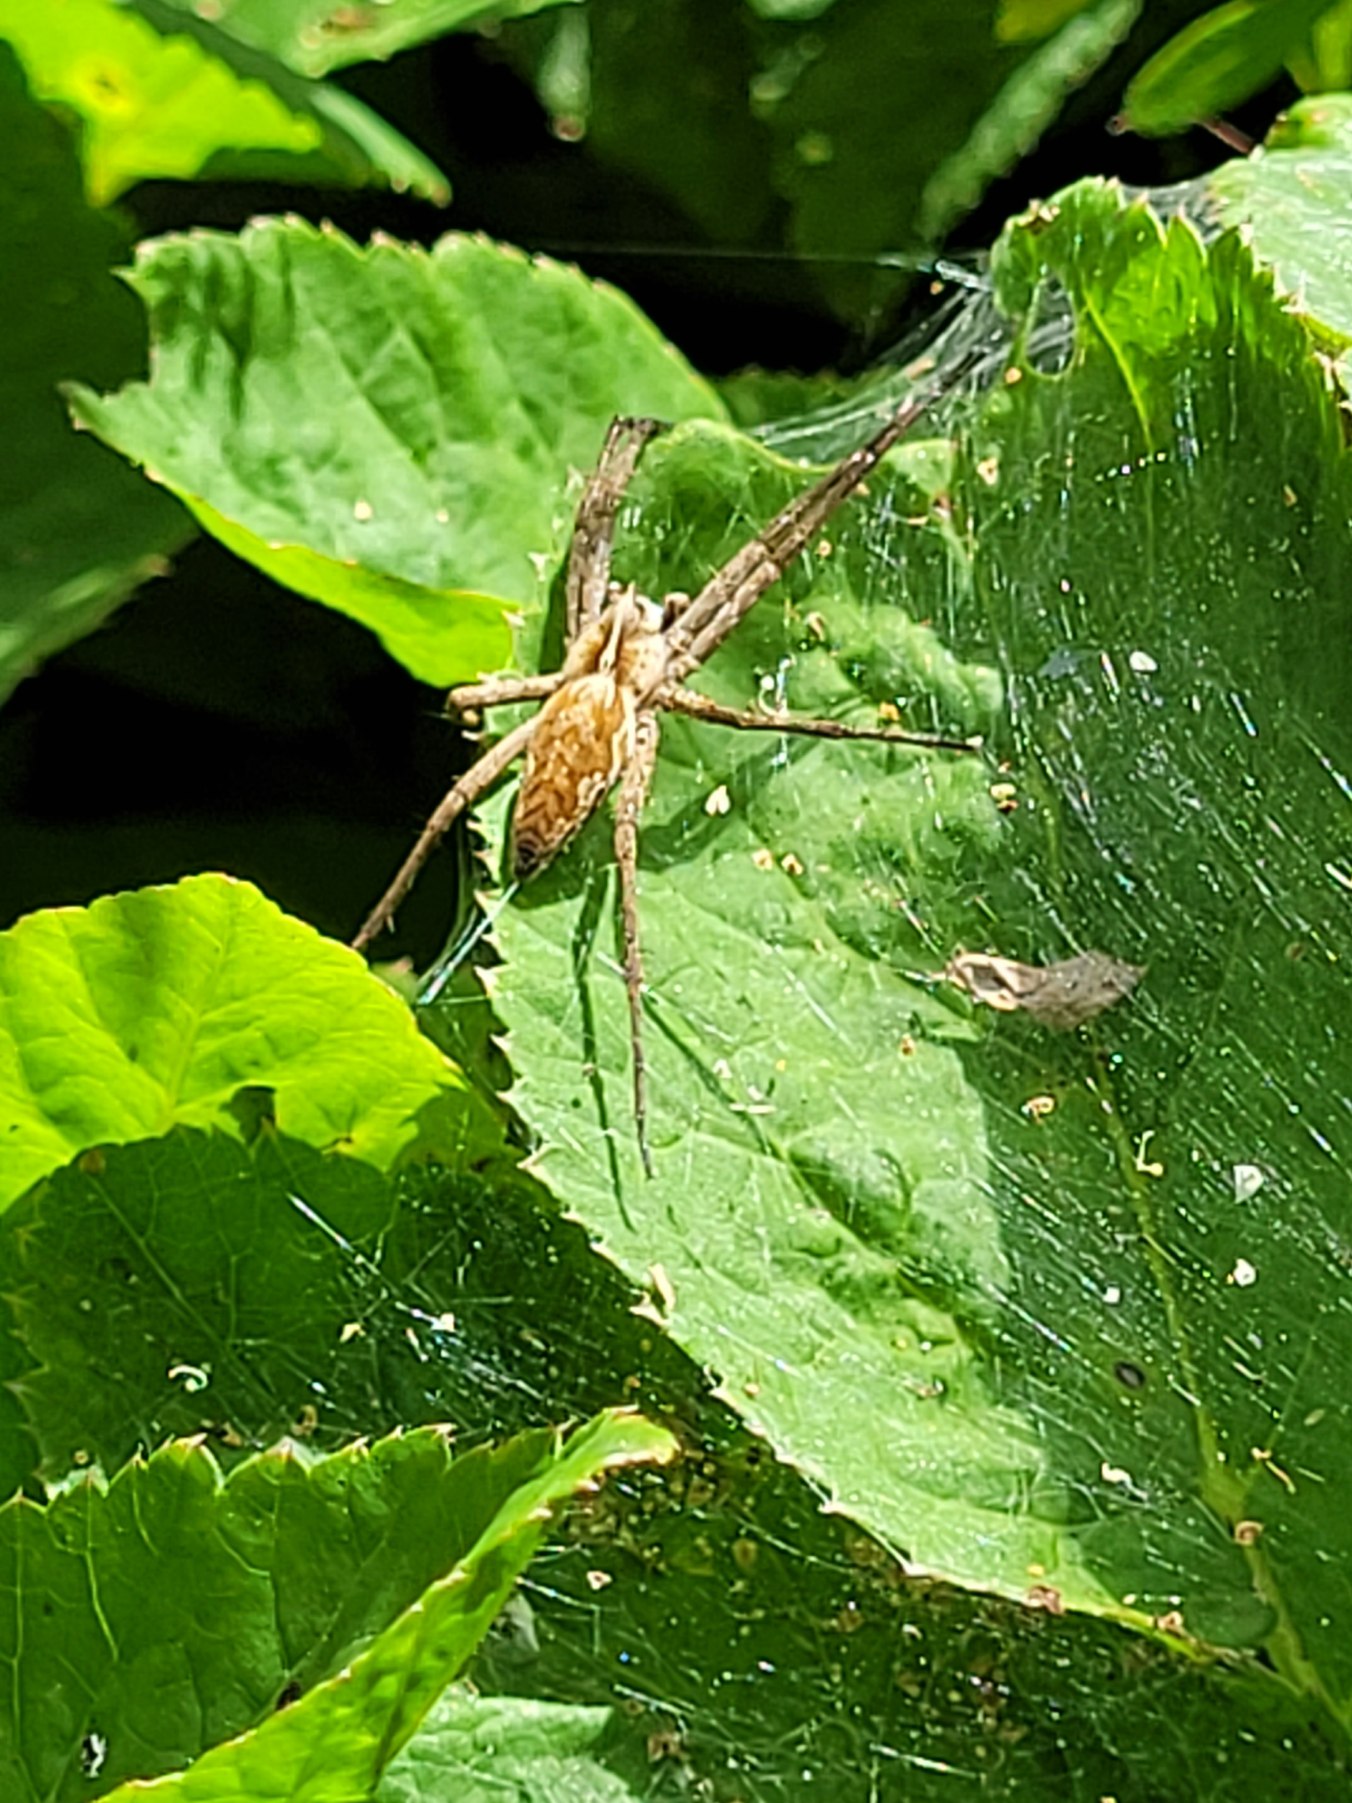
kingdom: Animalia
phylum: Arthropoda
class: Arachnida
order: Araneae
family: Pisauridae
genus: Pisaura
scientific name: Pisaura mirabilis
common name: Almindelig rovedderkop
